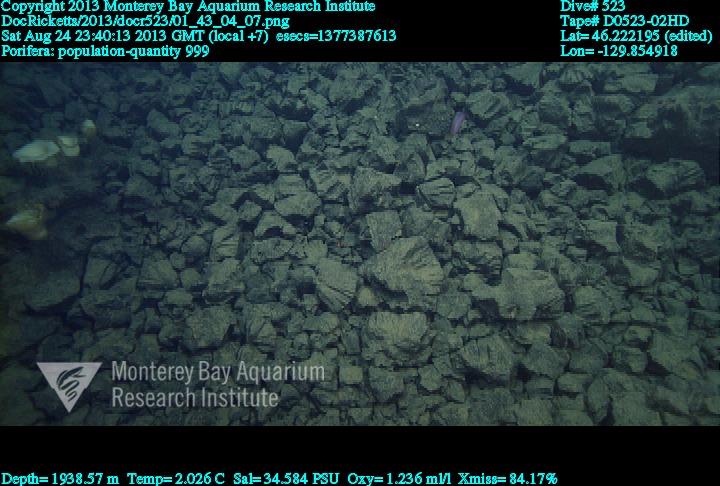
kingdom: Animalia
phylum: Porifera
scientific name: Porifera
